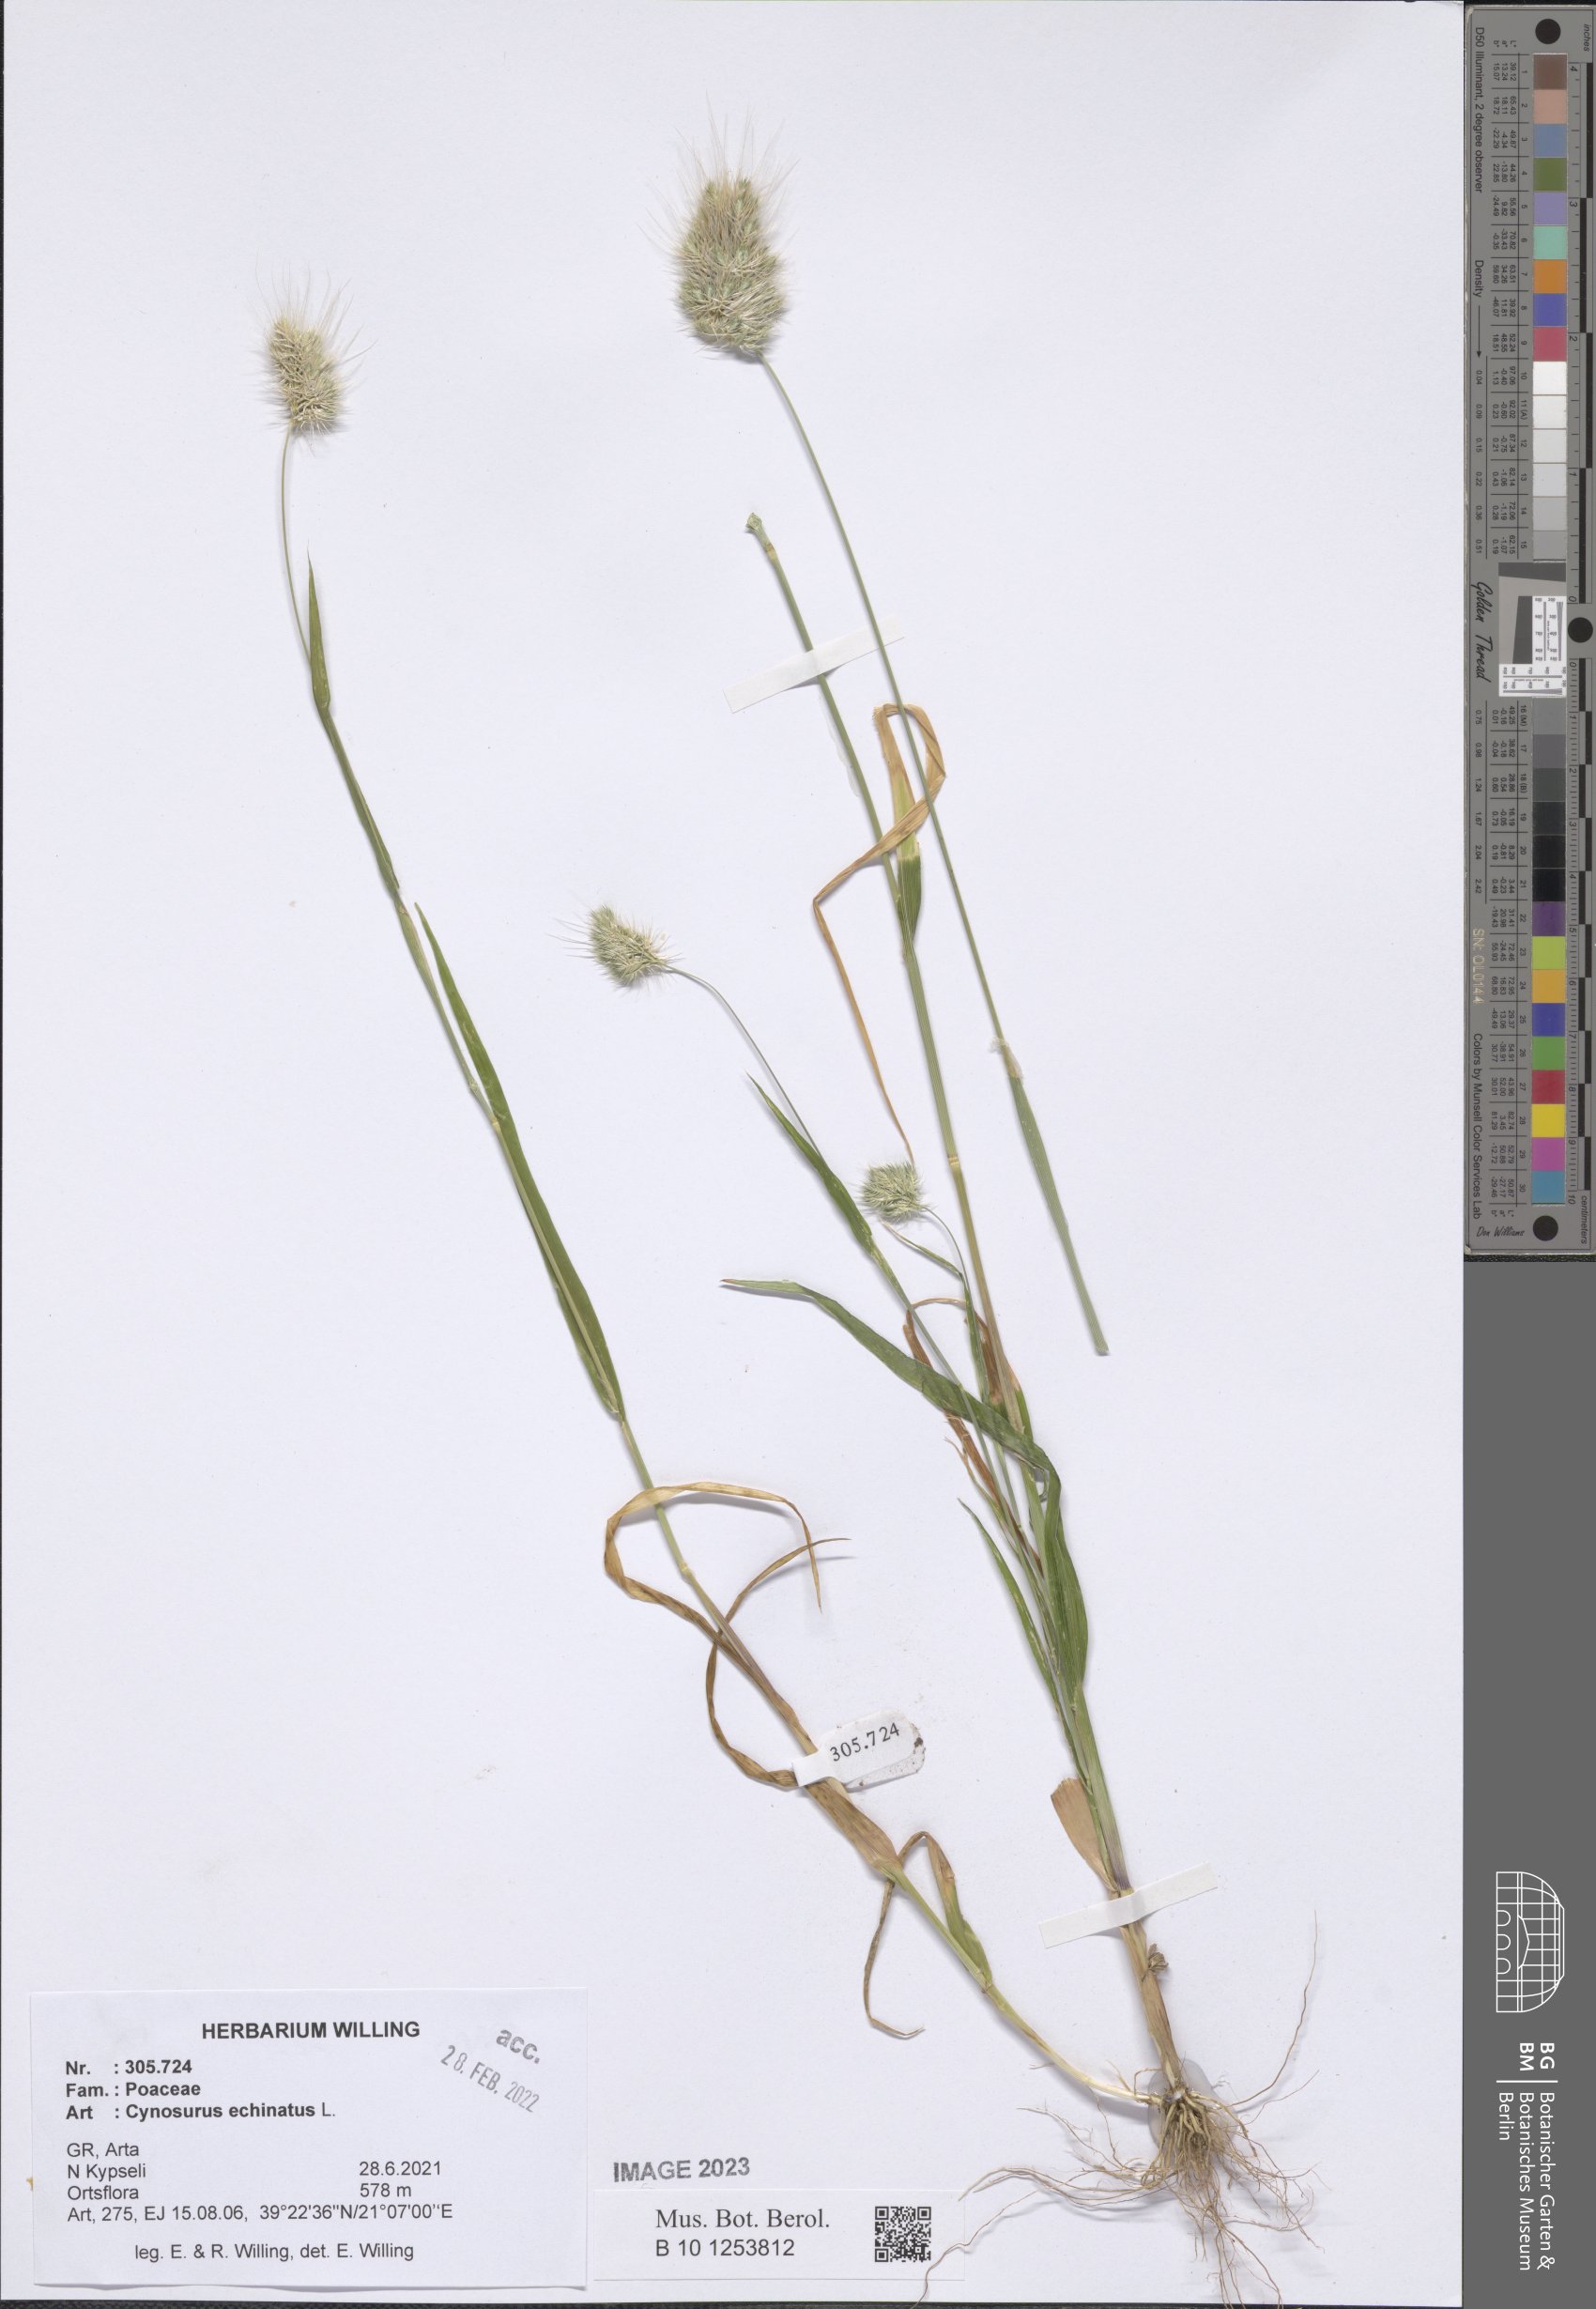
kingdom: Plantae
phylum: Tracheophyta
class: Liliopsida
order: Poales
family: Poaceae
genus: Cynosurus
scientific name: Cynosurus echinatus
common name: Rough dog's-tail
